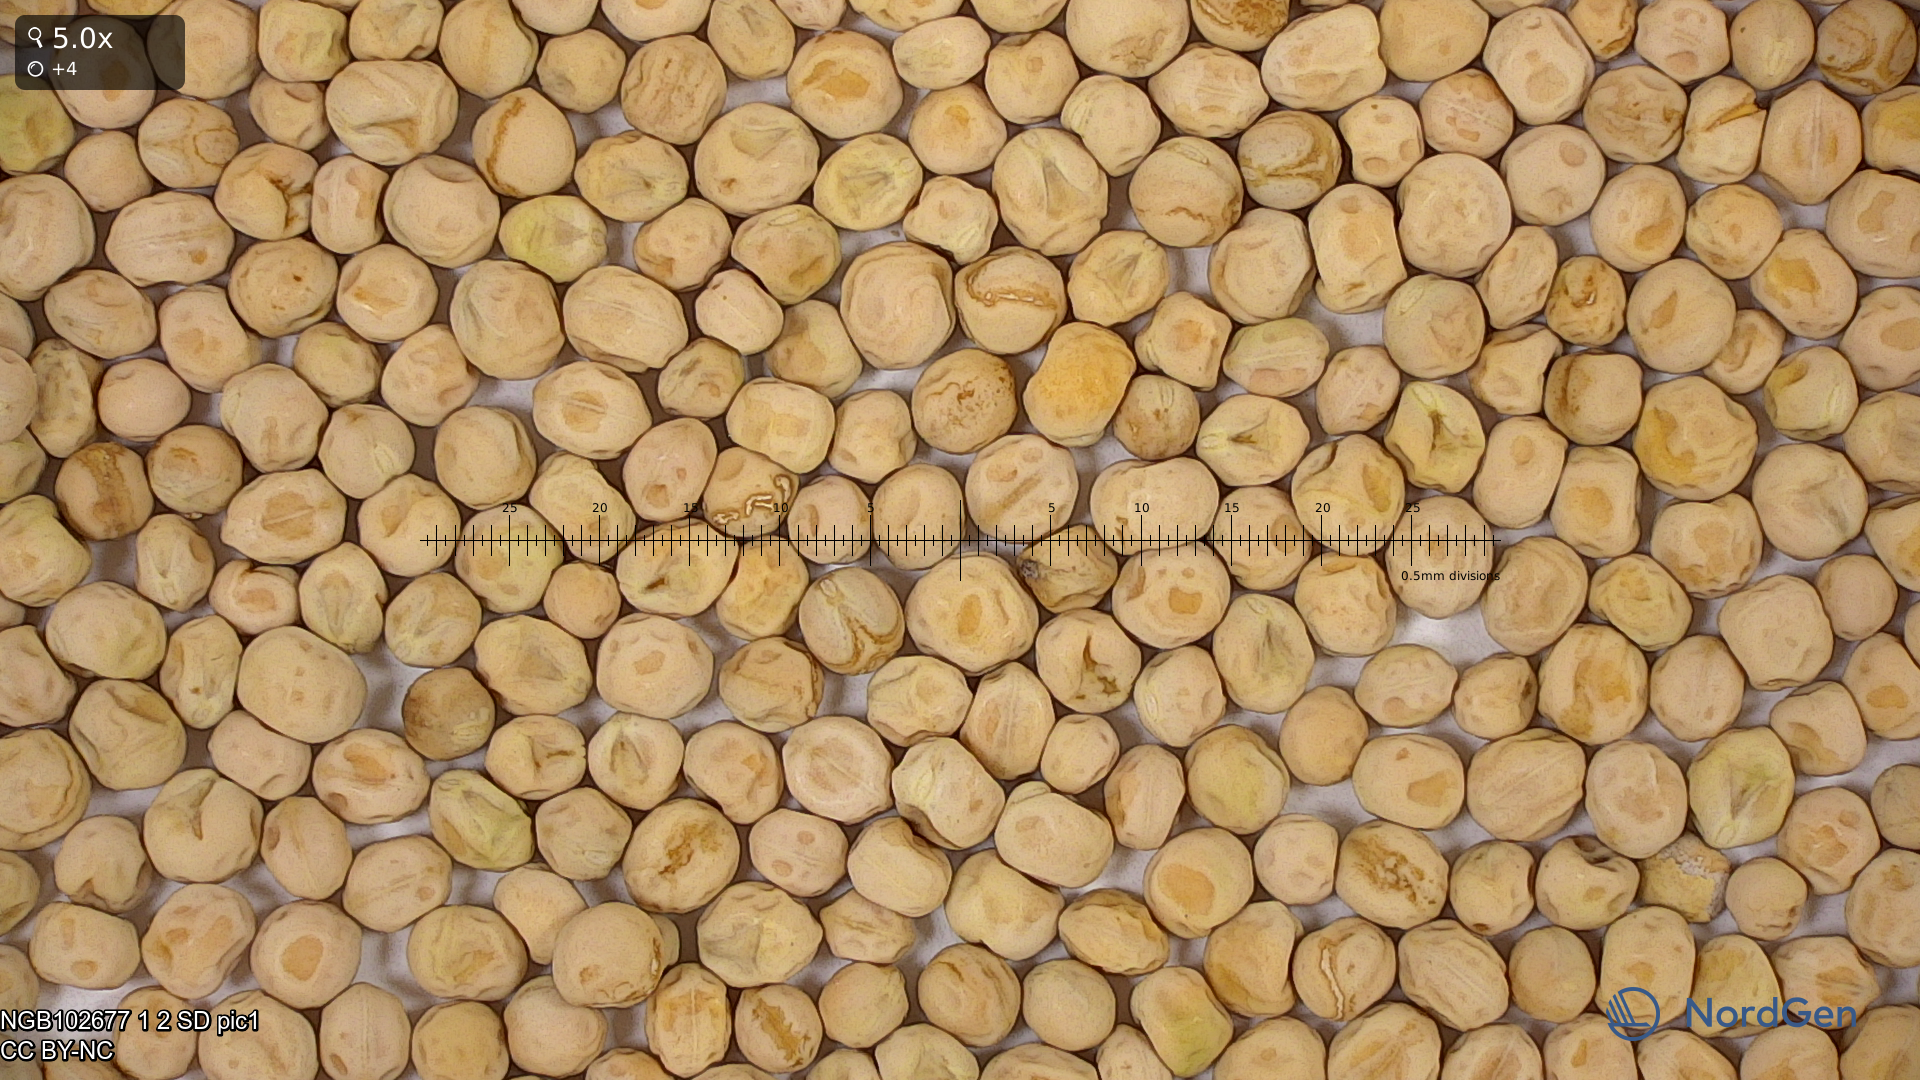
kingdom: Plantae
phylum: Tracheophyta
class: Magnoliopsida
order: Fabales
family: Fabaceae
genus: Lathyrus
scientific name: Lathyrus oleraceus
